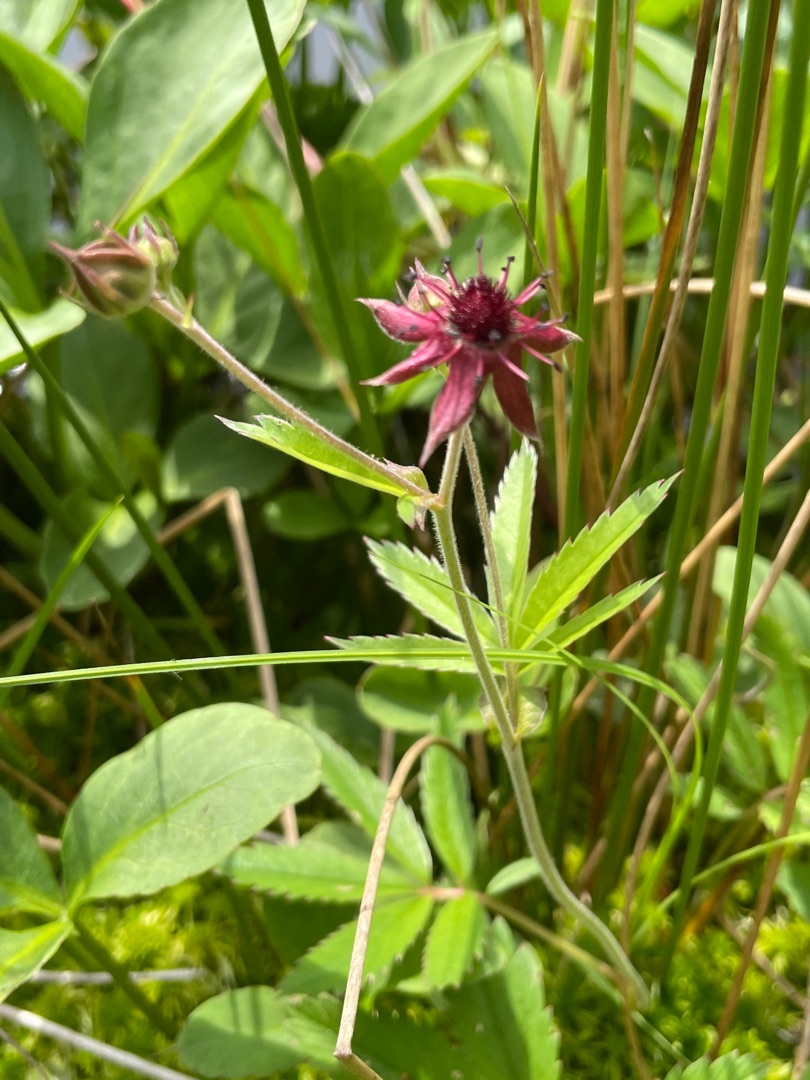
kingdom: Plantae
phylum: Tracheophyta
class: Magnoliopsida
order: Rosales
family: Rosaceae
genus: Comarum
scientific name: Comarum palustre
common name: Kragefod
